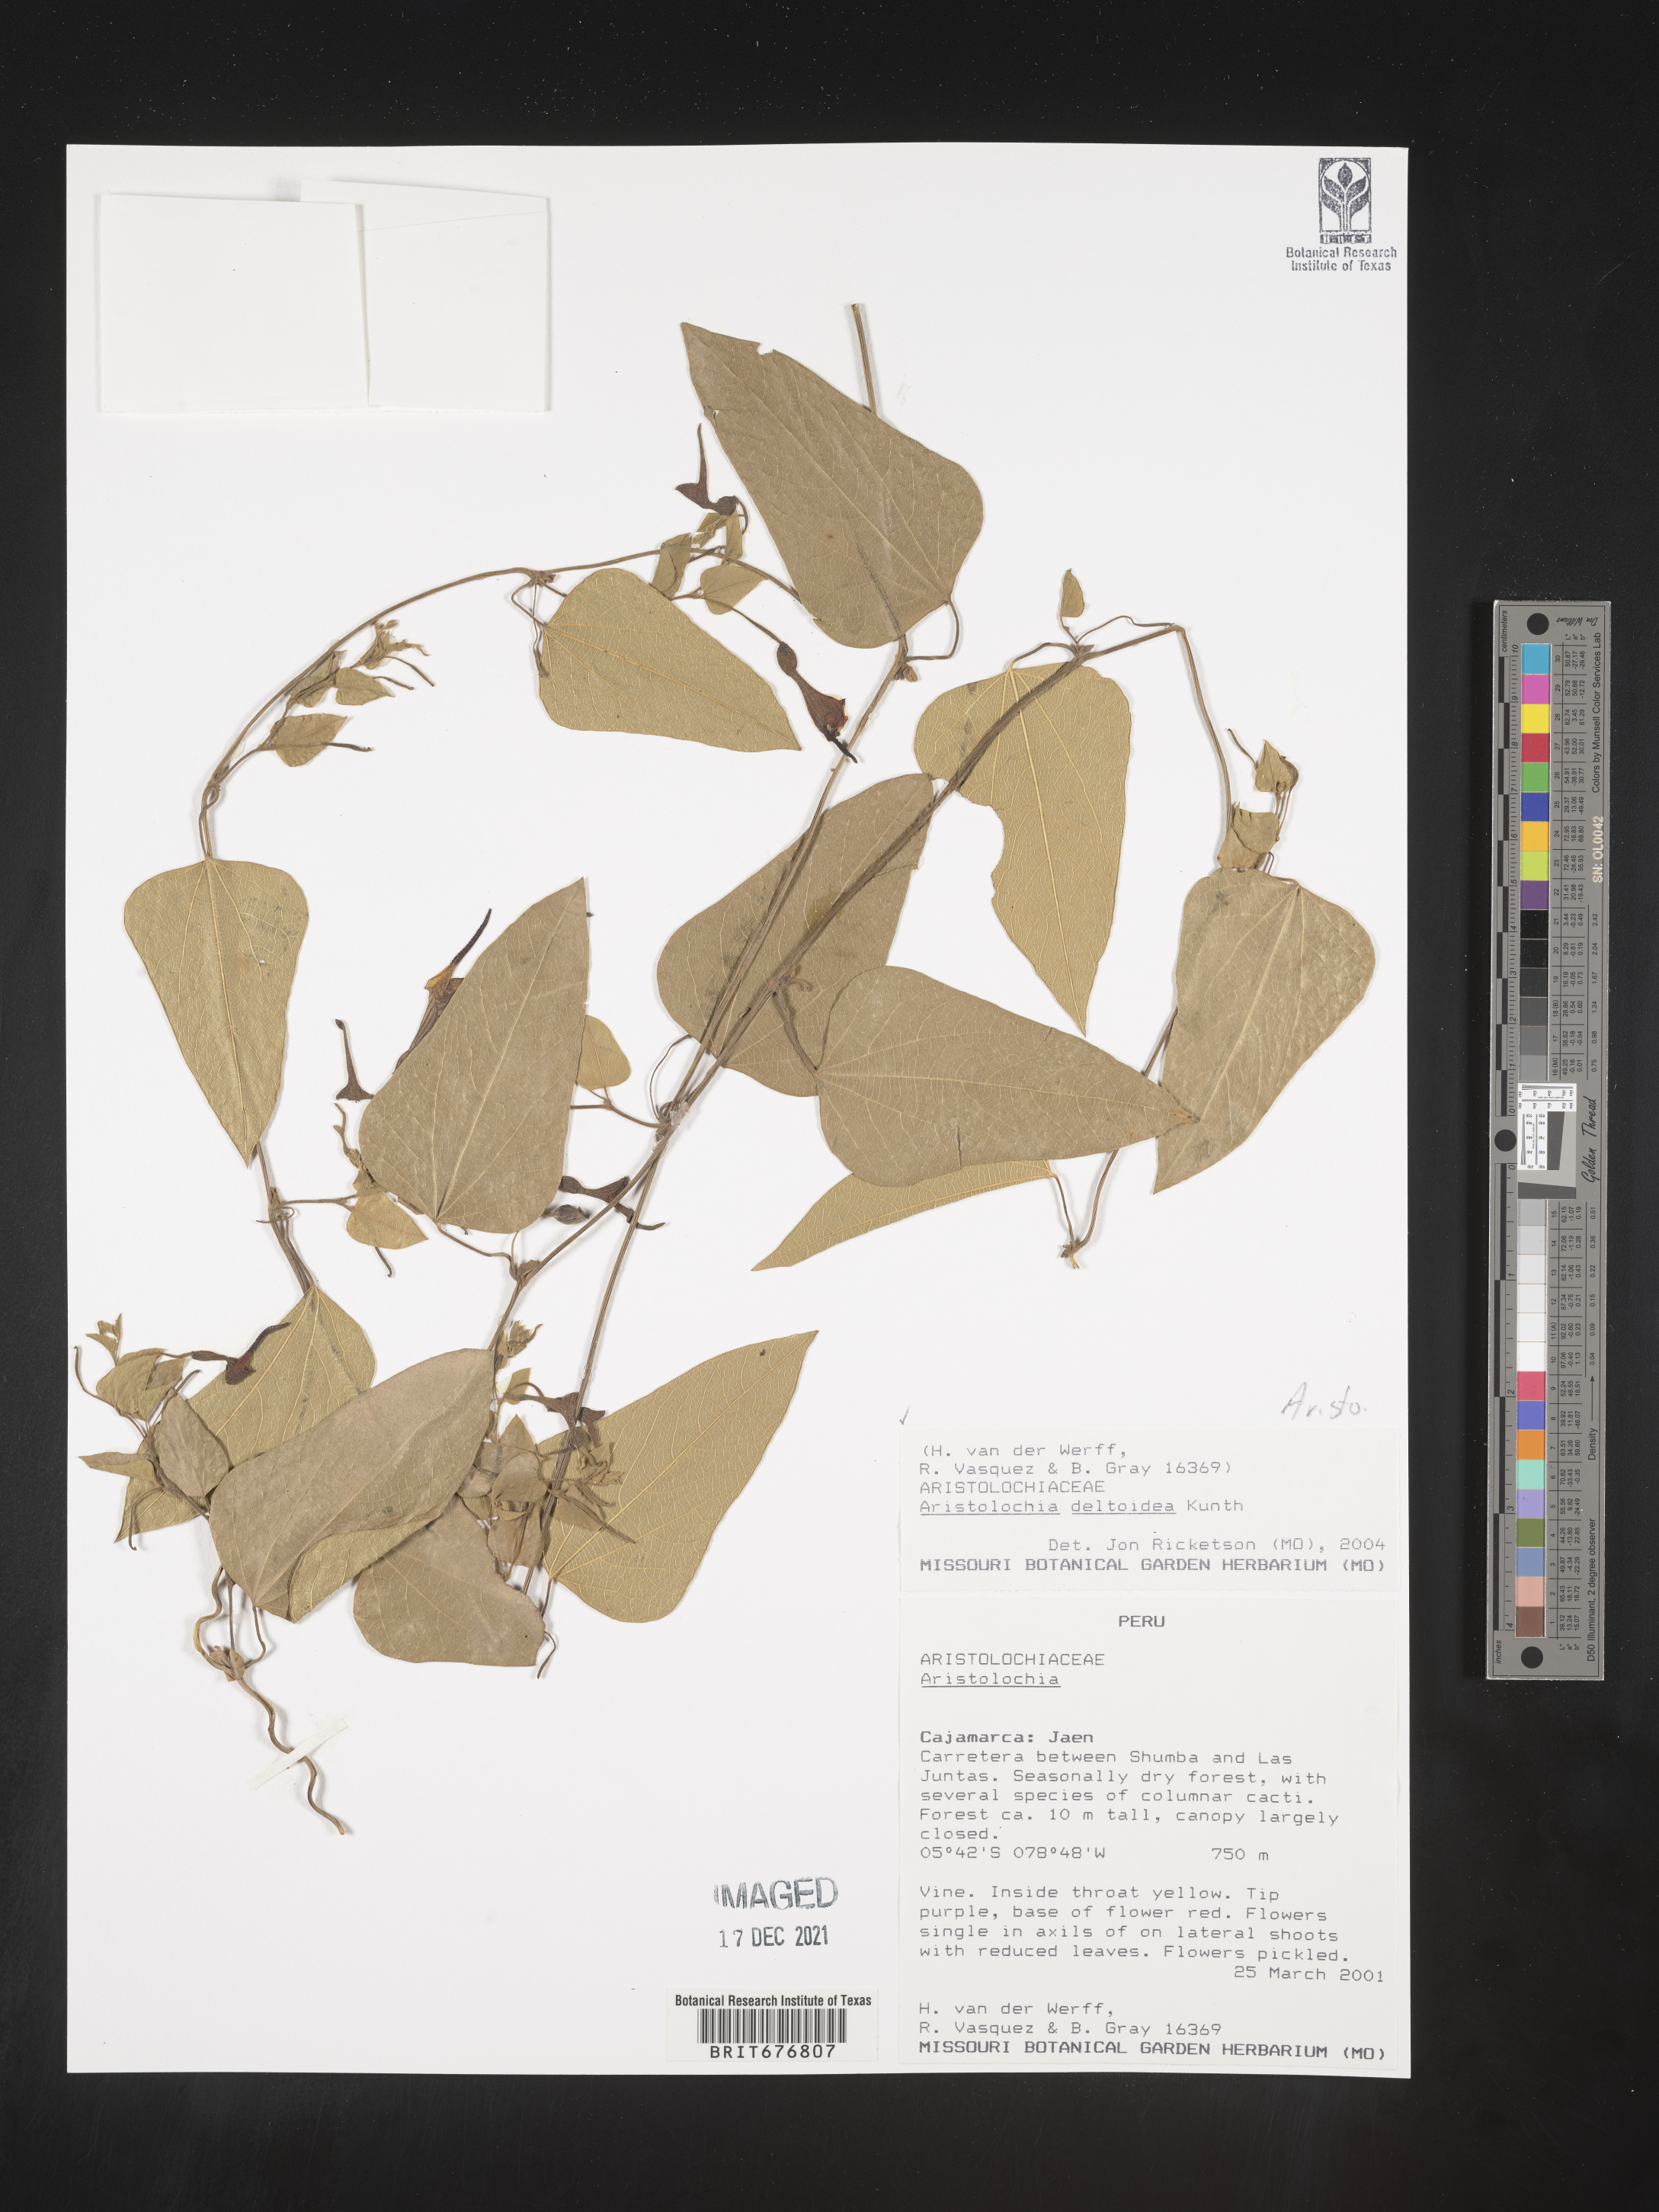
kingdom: Plantae
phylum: Tracheophyta
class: Magnoliopsida
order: Piperales
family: Aristolochiaceae
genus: Aristolochia
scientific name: Aristolochia
